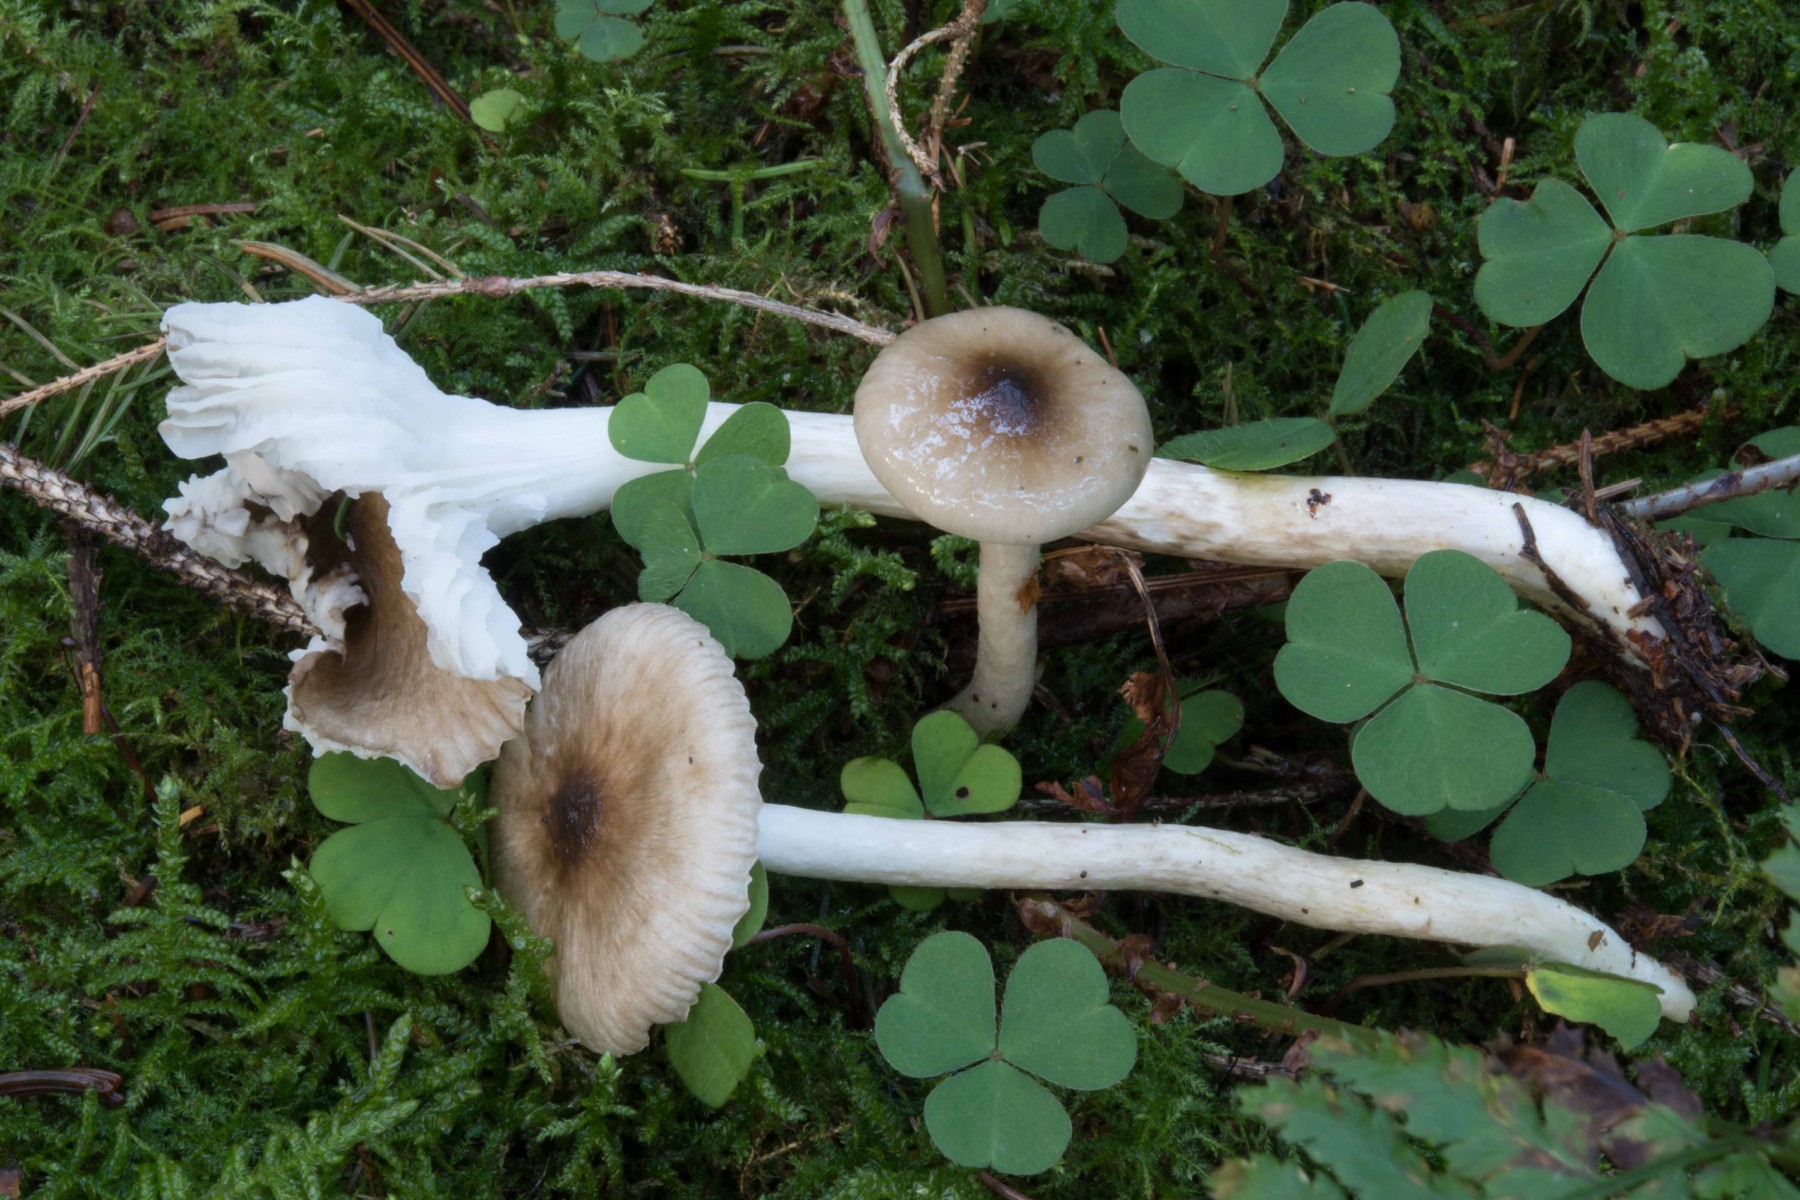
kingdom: Fungi
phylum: Basidiomycota
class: Agaricomycetes
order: Agaricales
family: Hygrophoraceae
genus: Hygrophorus
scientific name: Hygrophorus olivaceoalbus
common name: hvidbrun sneglehat
